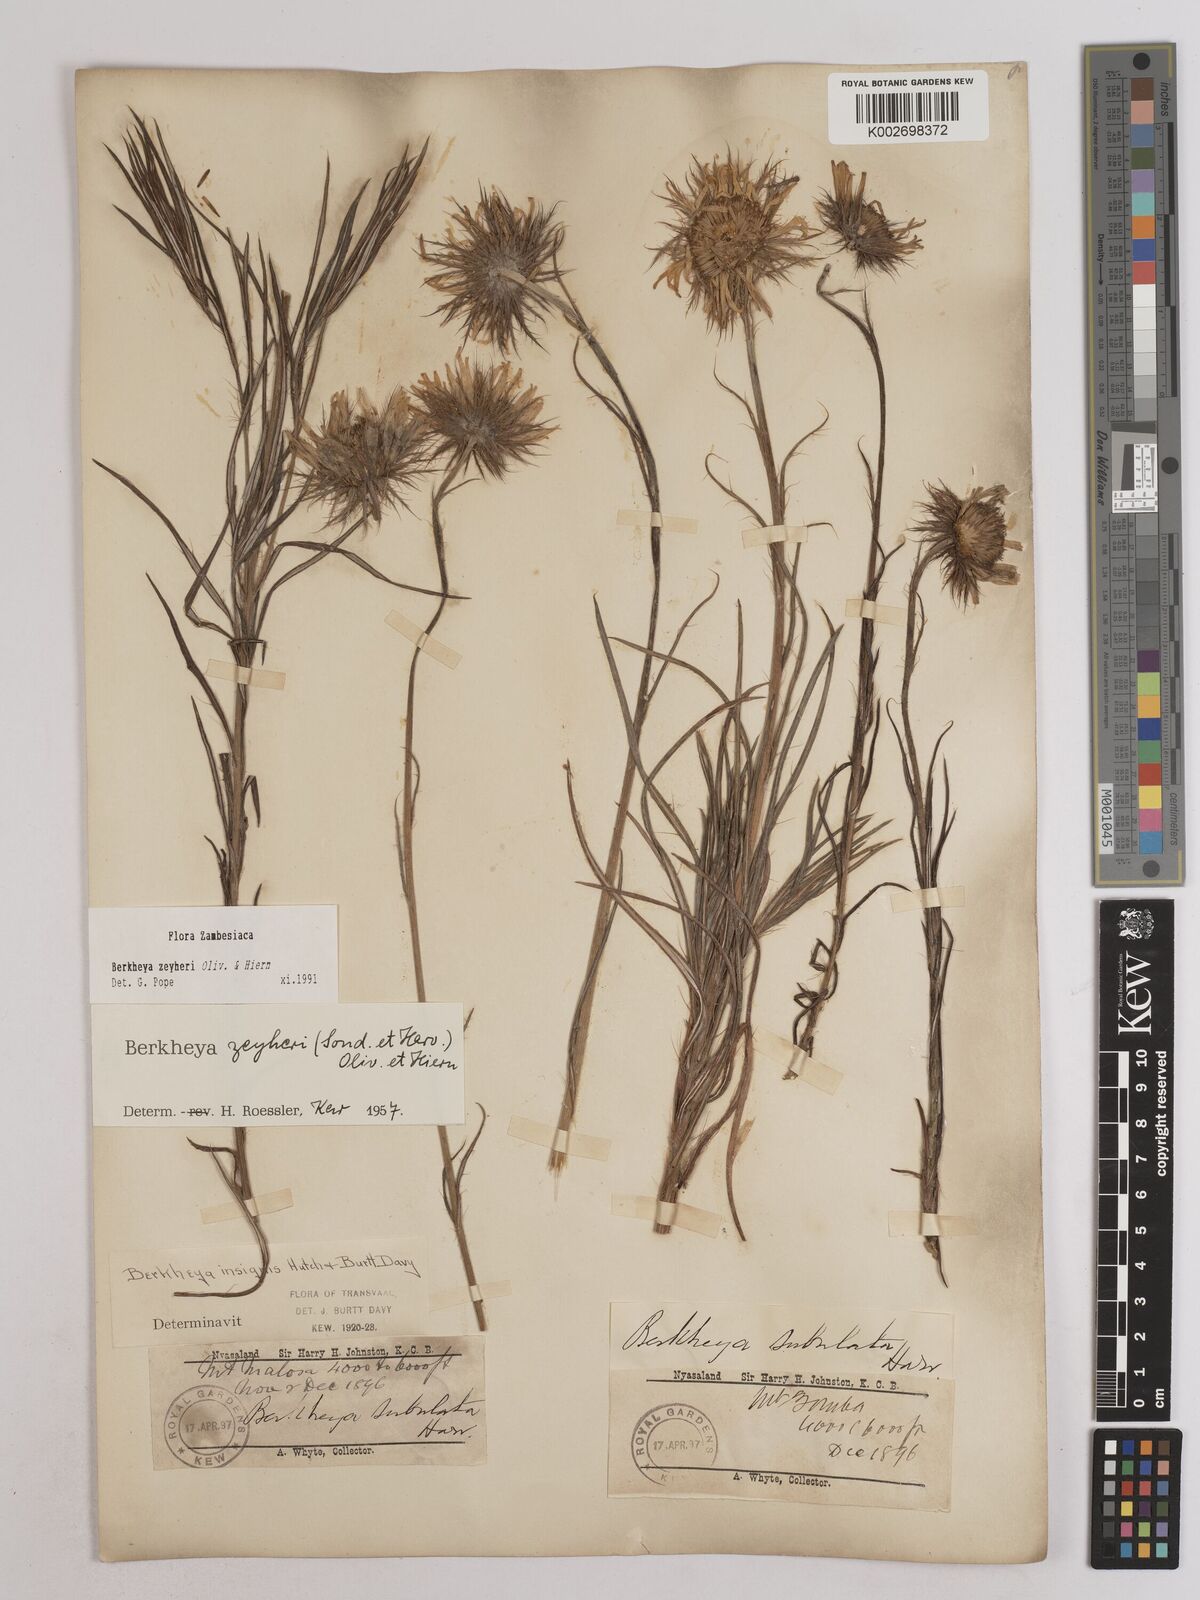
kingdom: Plantae
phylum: Tracheophyta
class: Magnoliopsida
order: Asterales
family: Asteraceae
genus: Berkheya
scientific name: Berkheya zeyheri
